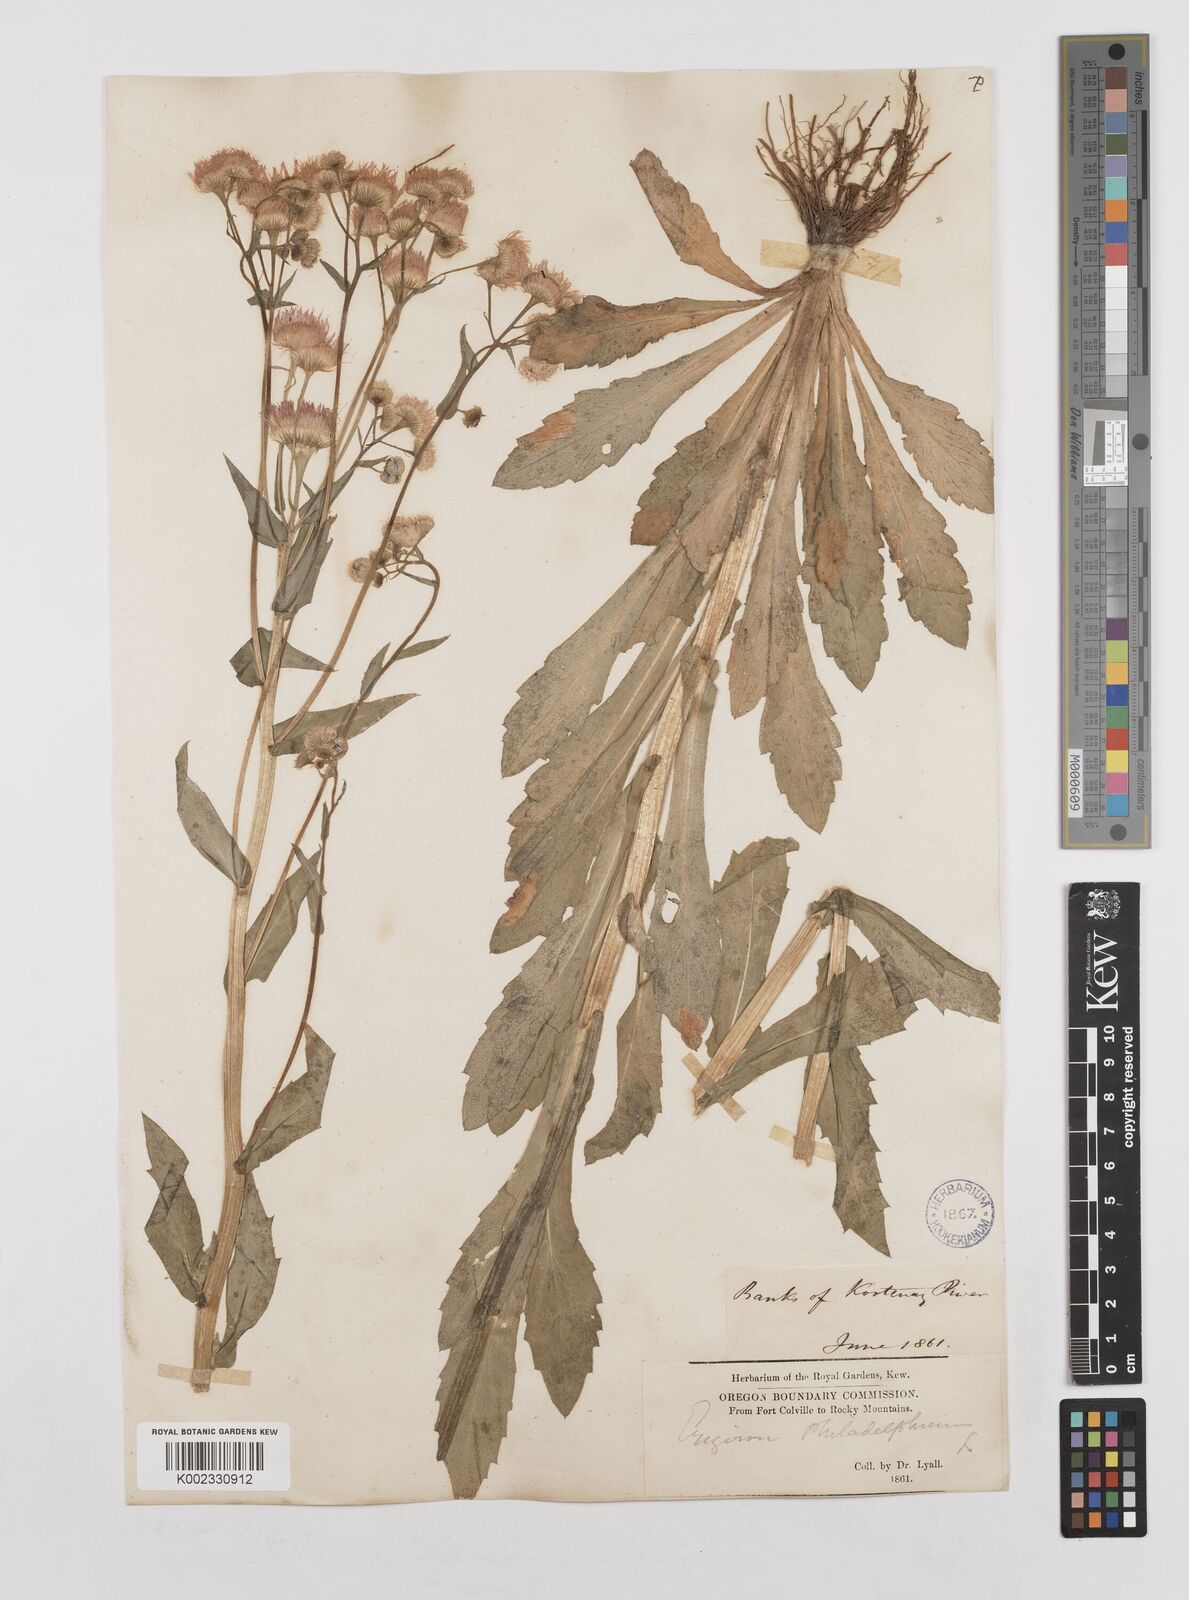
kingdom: Plantae
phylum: Tracheophyta
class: Magnoliopsida
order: Asterales
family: Asteraceae
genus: Erigeron
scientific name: Erigeron philadelphicus
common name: Robin's-plantain
